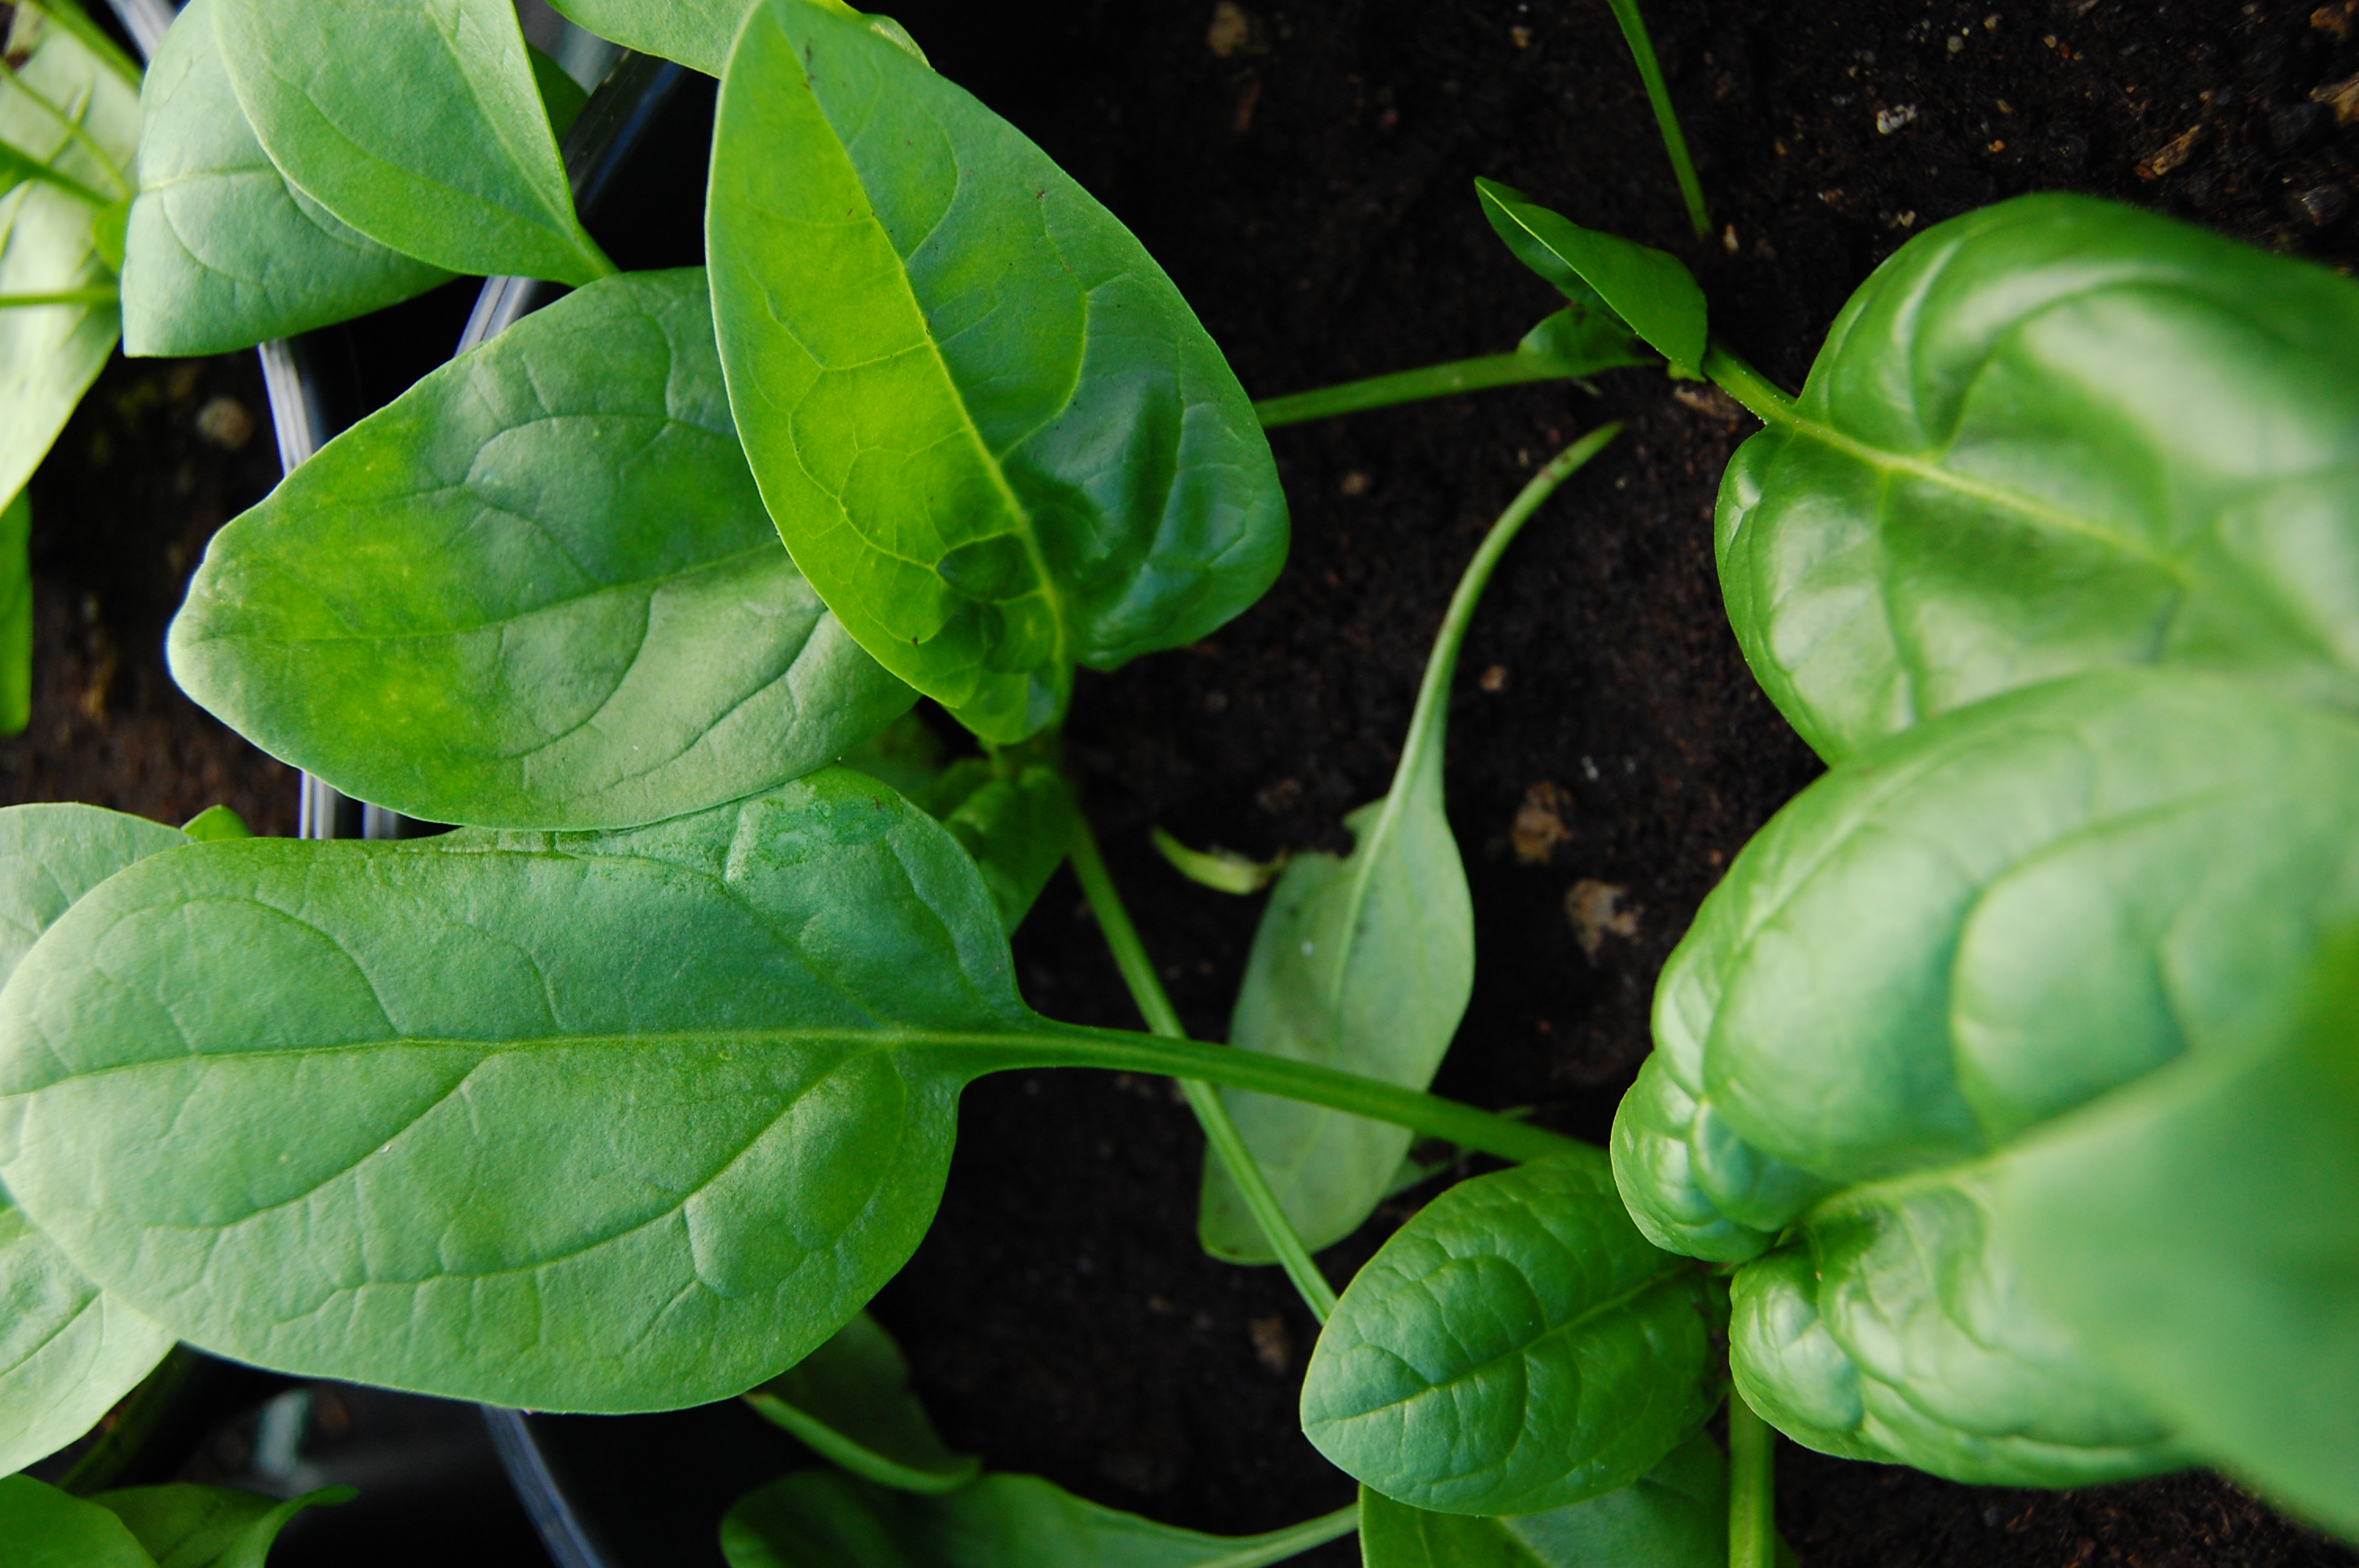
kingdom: Plantae
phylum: Tracheophyta
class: Magnoliopsida
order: Caryophyllales
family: Amaranthaceae
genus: Spinacia
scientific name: Spinacia oleracea
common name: Spinach
